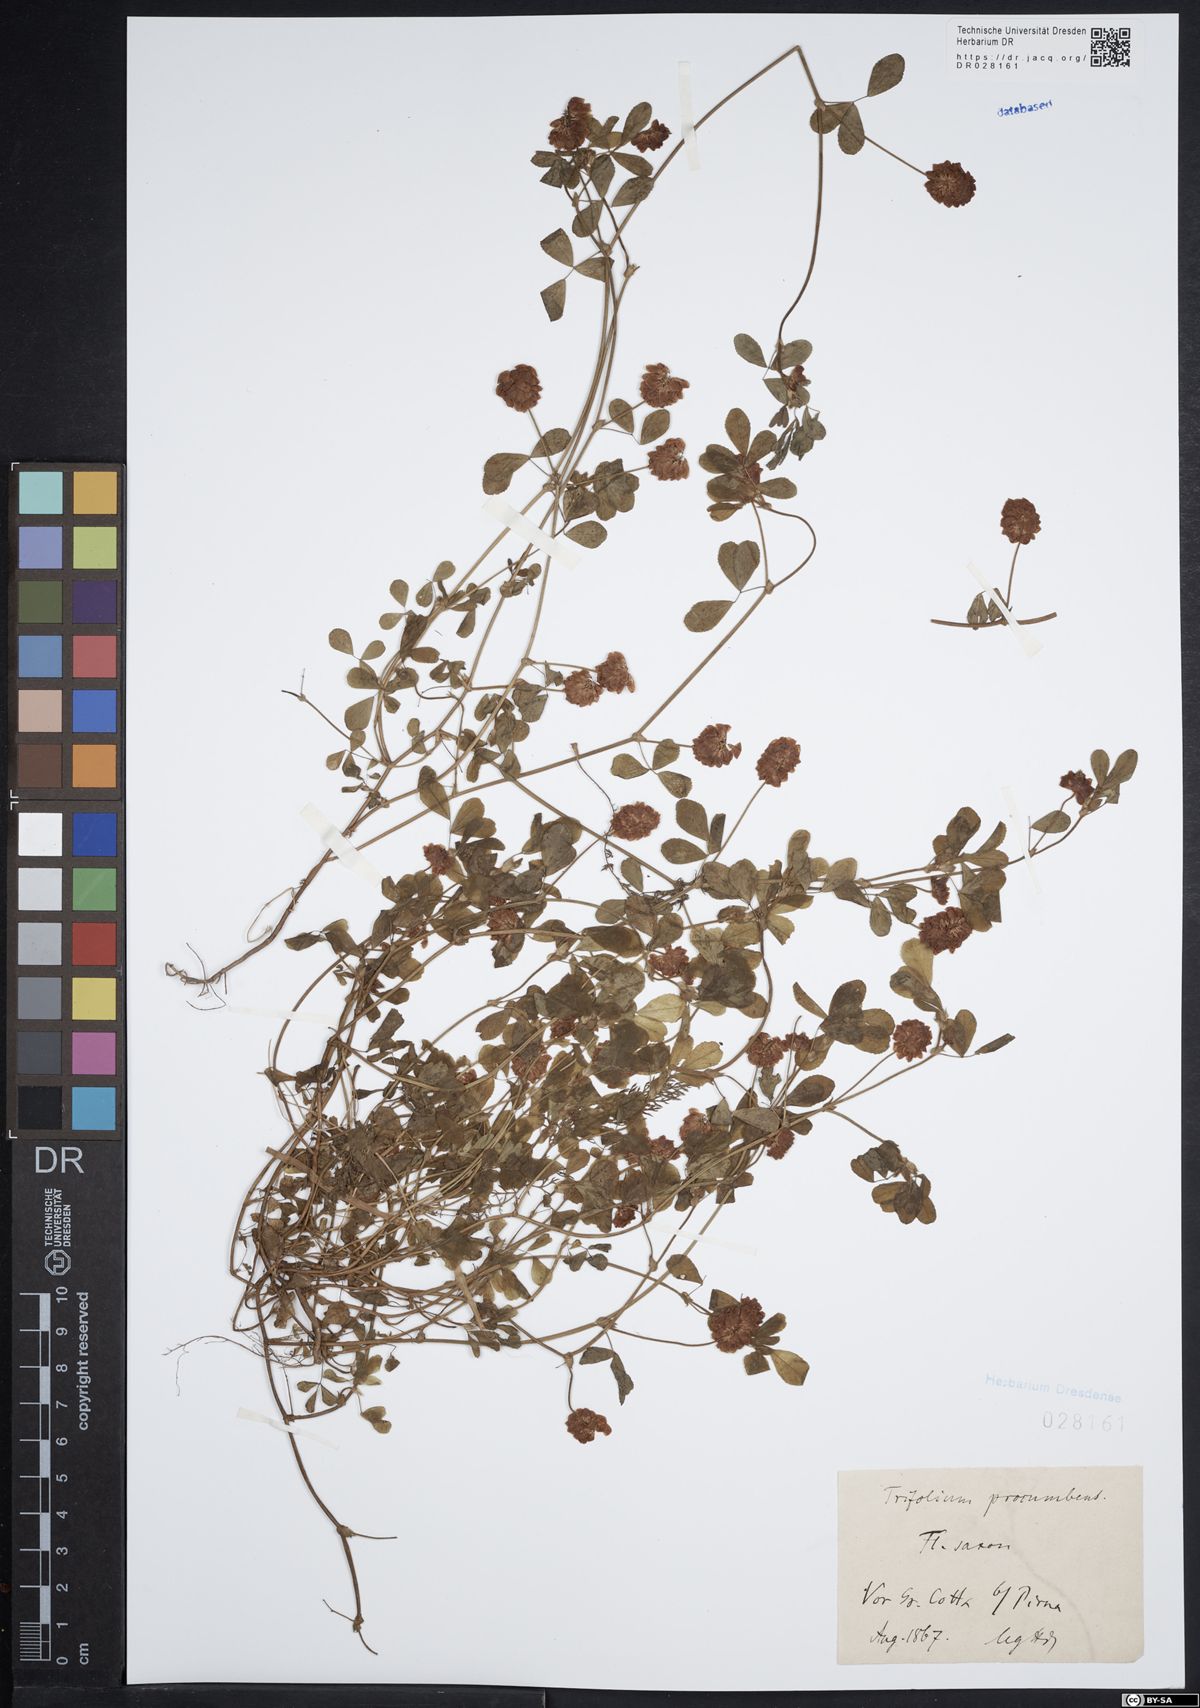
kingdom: Plantae
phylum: Tracheophyta
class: Magnoliopsida
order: Fabales
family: Fabaceae
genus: Trifolium
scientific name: Trifolium campestre
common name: Field clover
